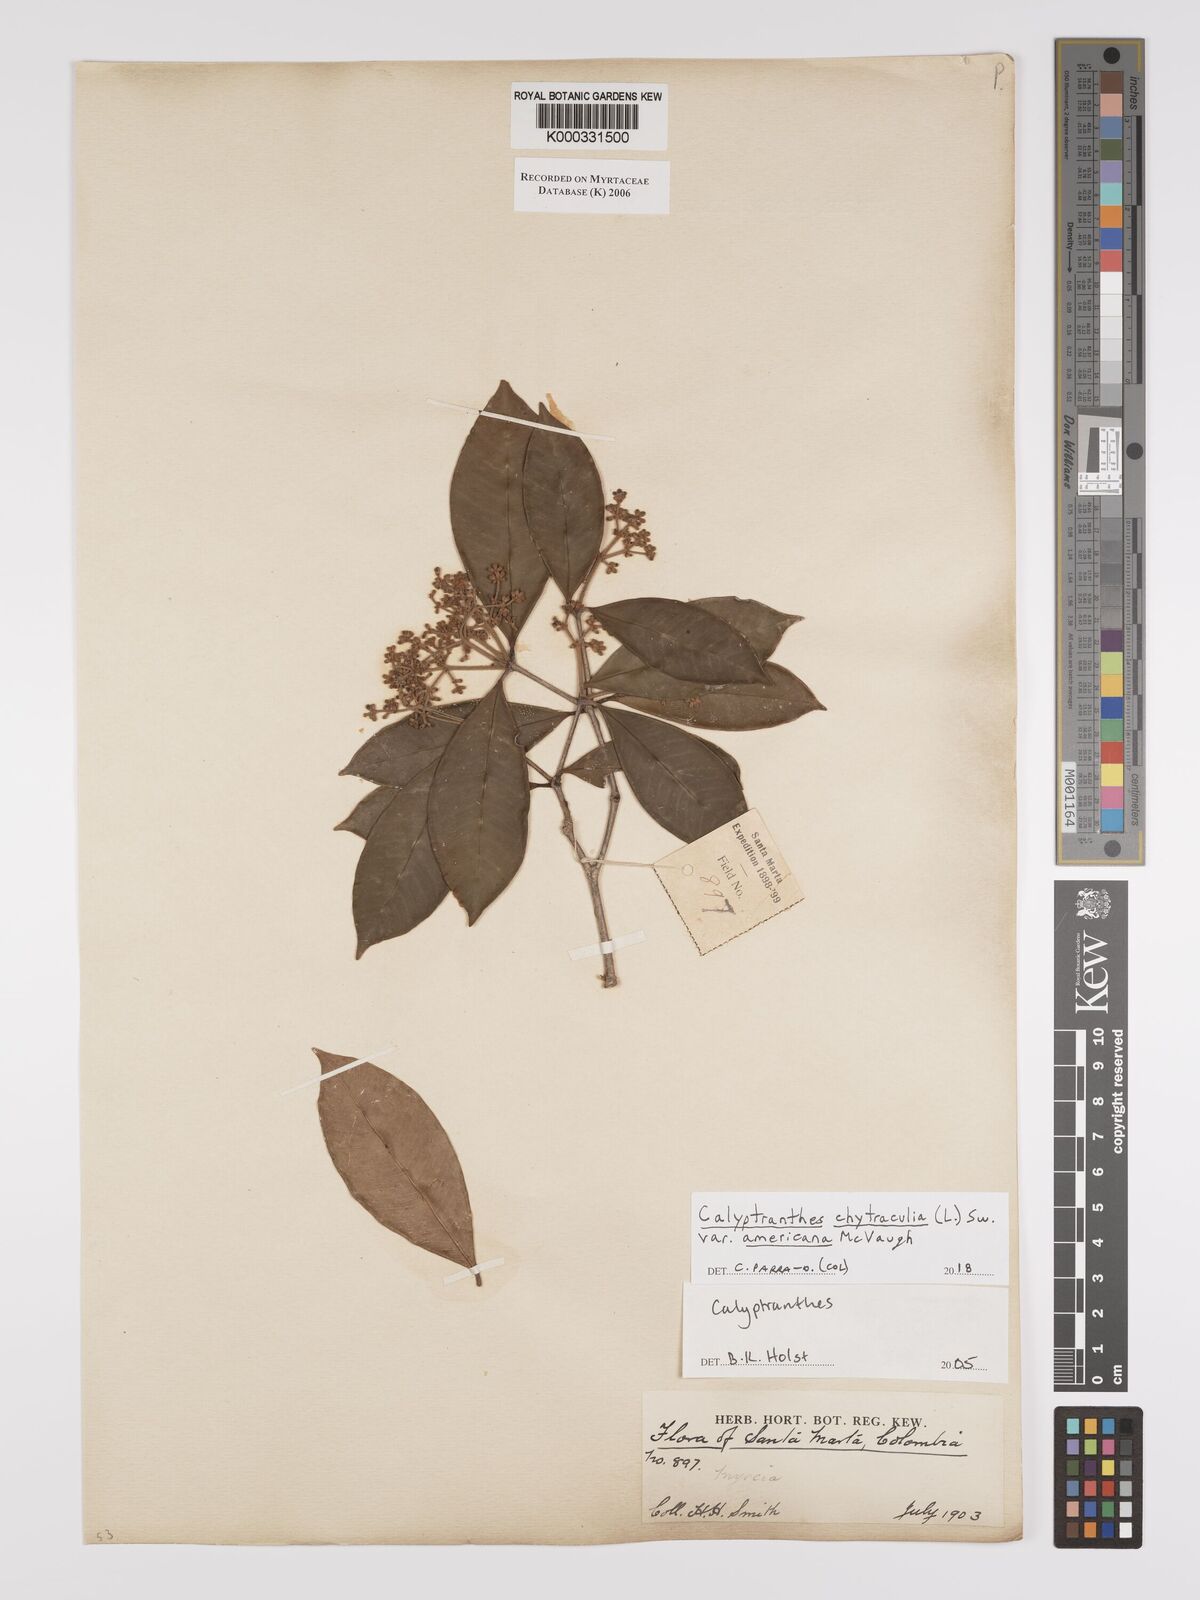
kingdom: Plantae
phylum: Tracheophyta
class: Magnoliopsida
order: Myrtales
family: Myrtaceae
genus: Calyptranthes
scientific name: Calyptranthes
